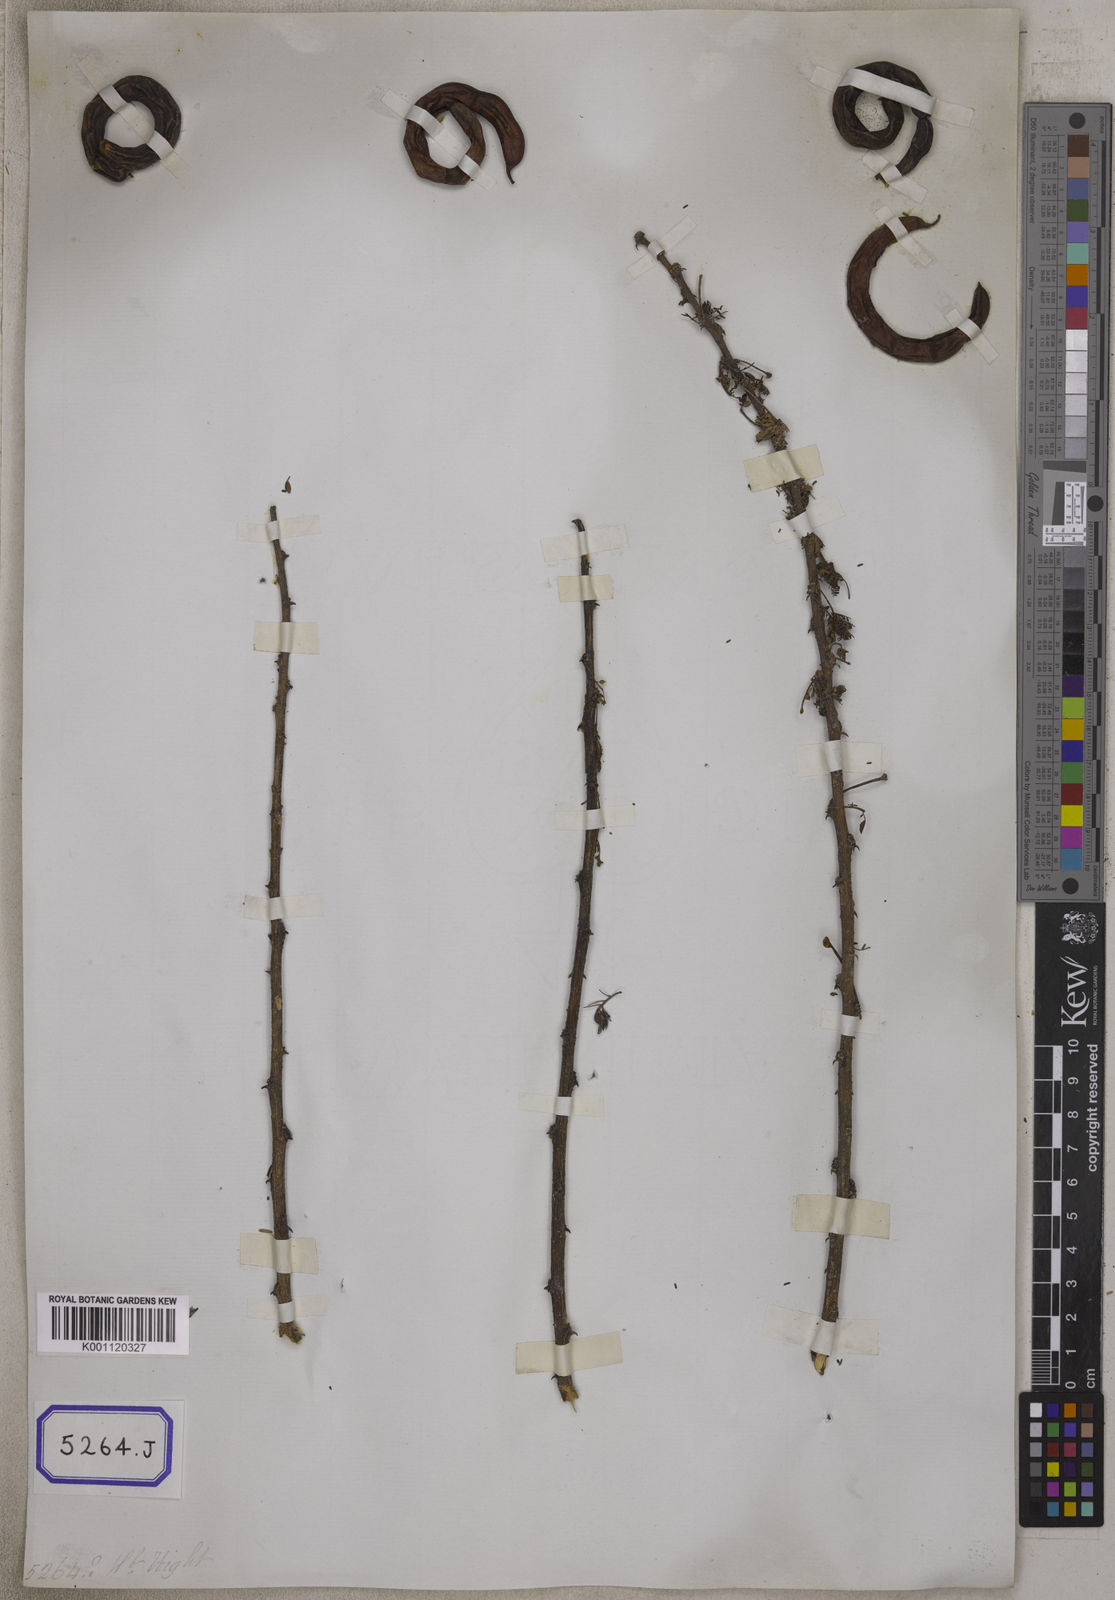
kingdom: Plantae
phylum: Tracheophyta
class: Magnoliopsida
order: Fabales
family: Fabaceae
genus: Vachellia
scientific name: Vachellia farnesiana
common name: Sweet acacia
